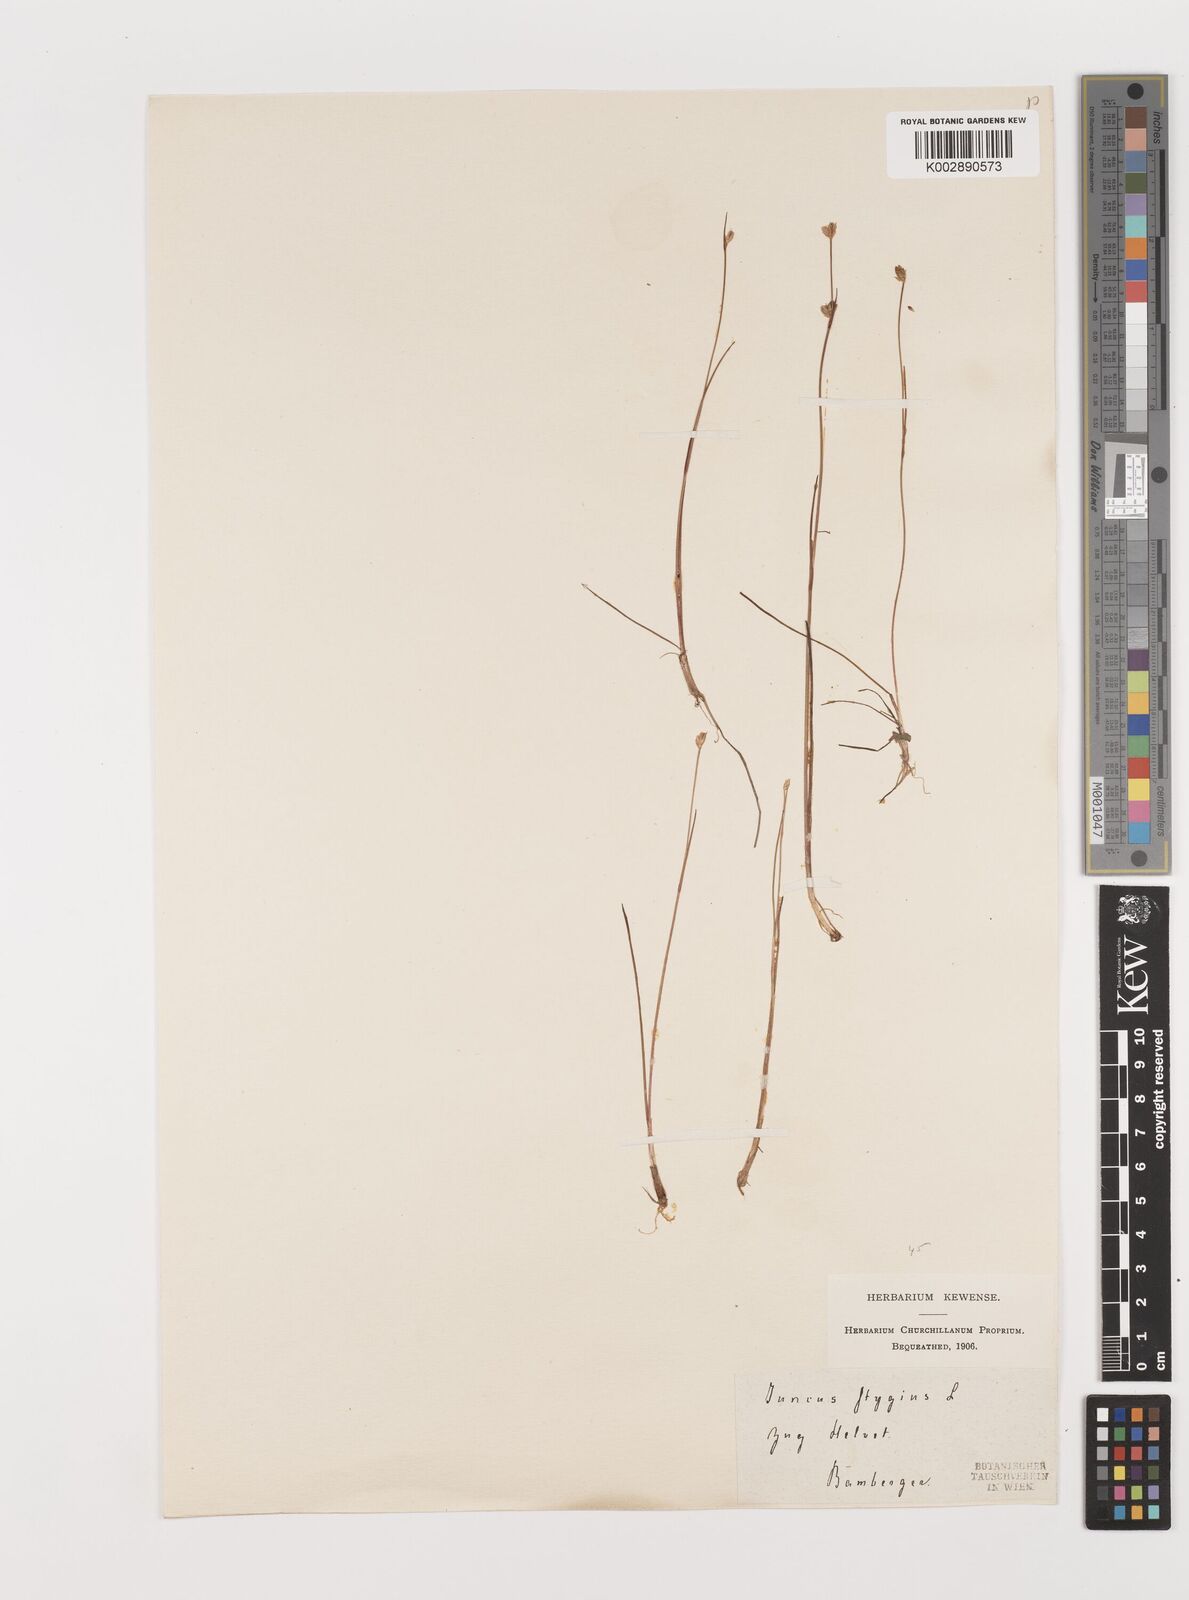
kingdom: Plantae
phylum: Tracheophyta
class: Liliopsida
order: Poales
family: Juncaceae
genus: Juncus
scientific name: Juncus stygius
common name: Bog rush
